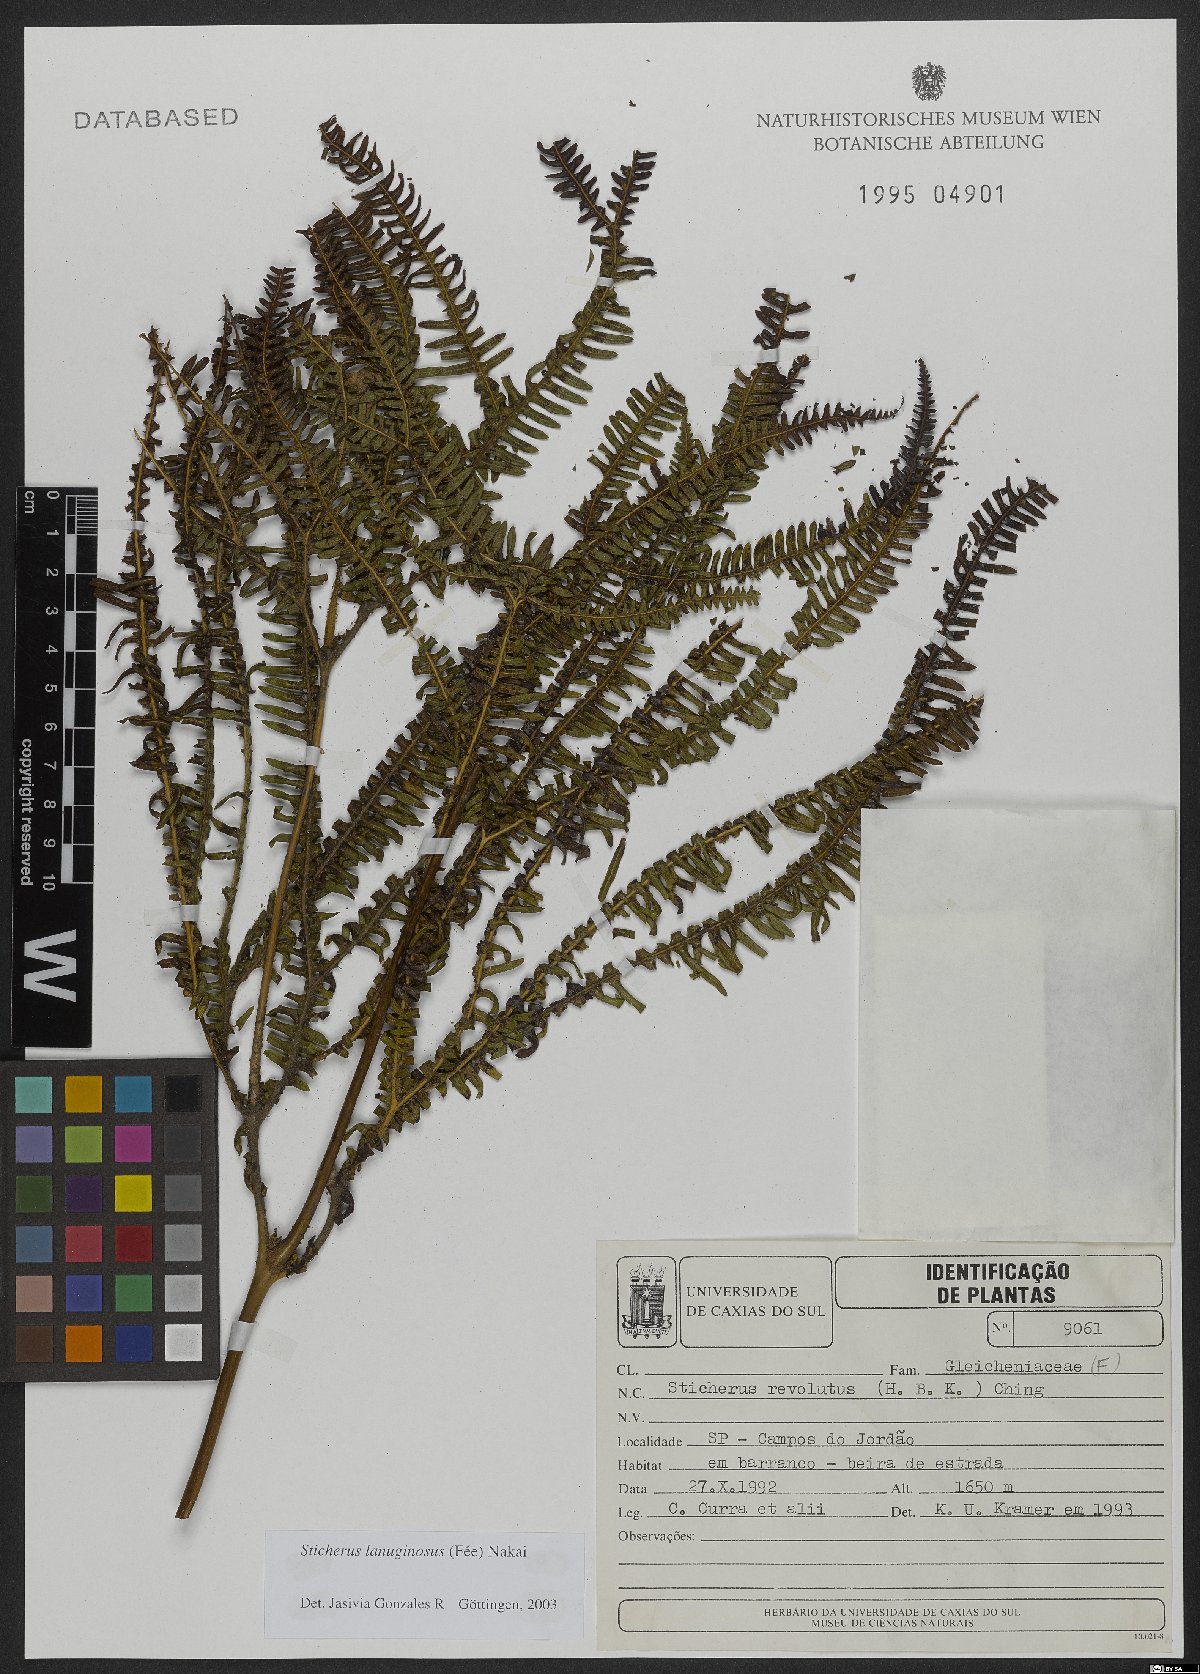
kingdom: Plantae
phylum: Tracheophyta
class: Polypodiopsida
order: Gleicheniales
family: Gleicheniaceae
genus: Sticherus
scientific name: Sticherus lanuginosus
